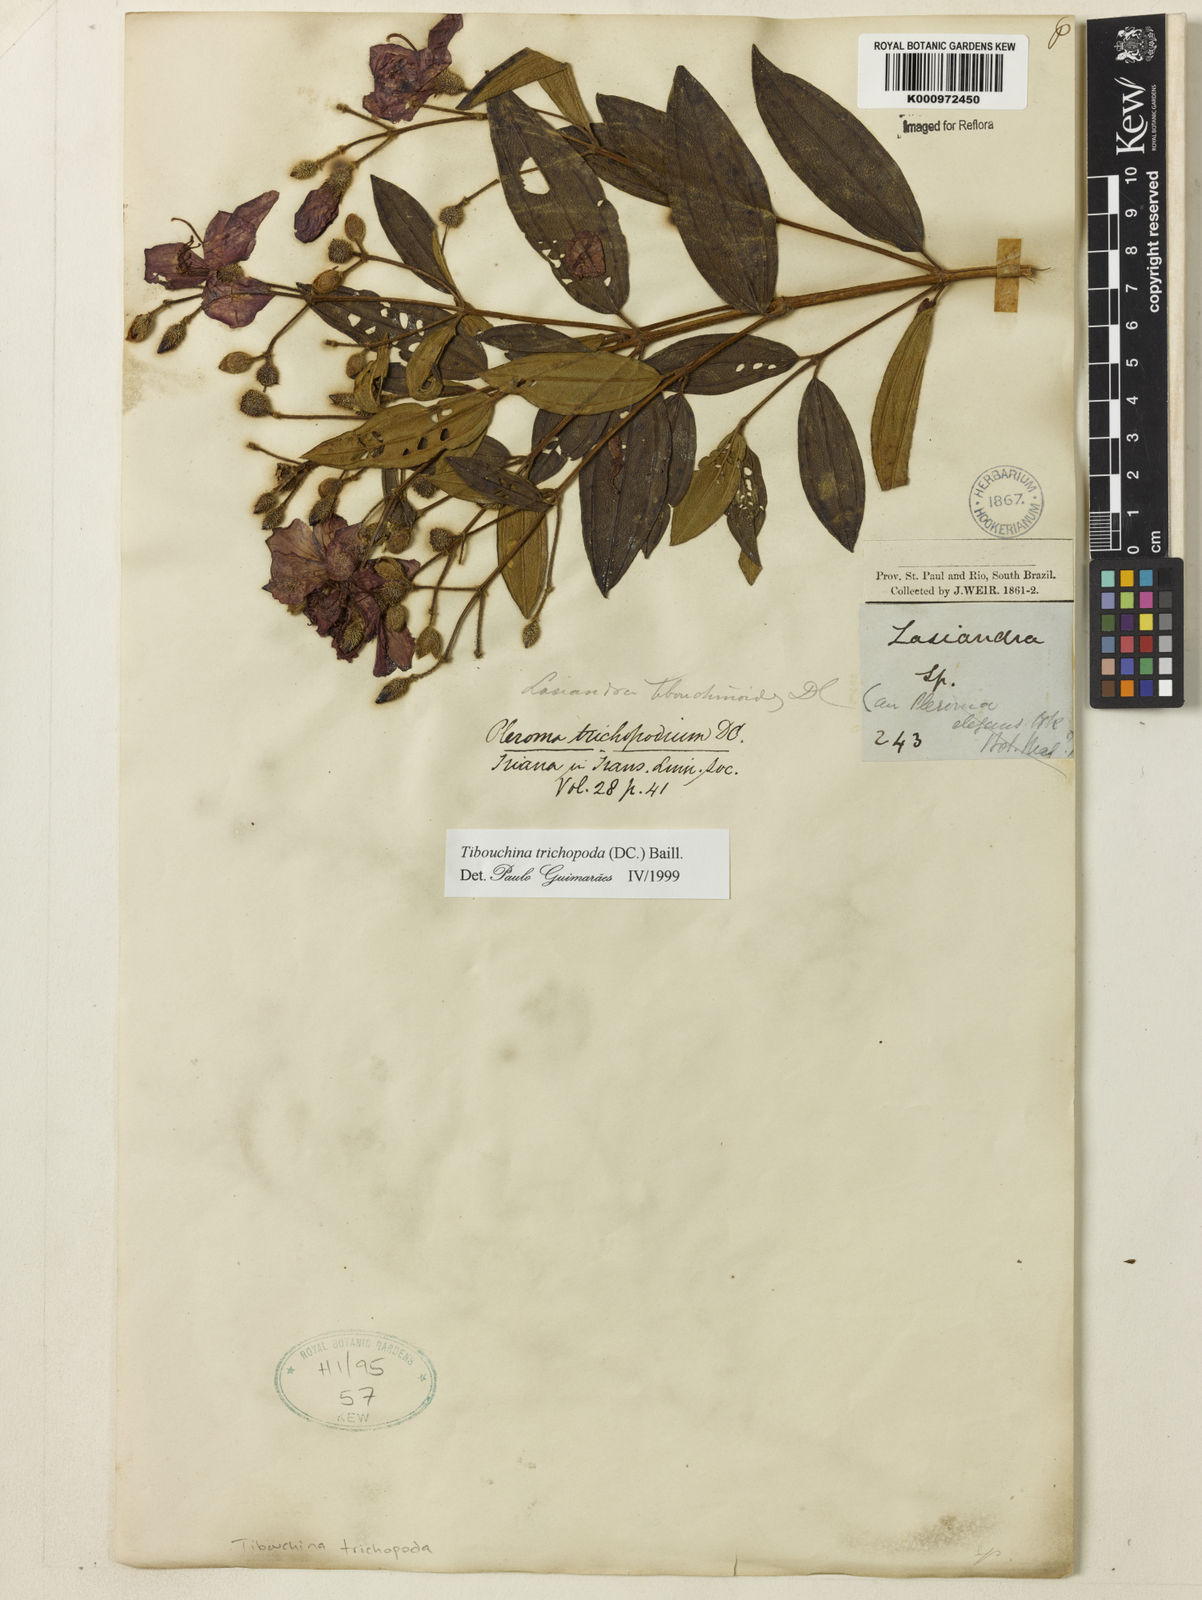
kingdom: Plantae
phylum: Tracheophyta
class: Magnoliopsida
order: Myrtales
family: Melastomataceae
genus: Pleroma
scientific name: Pleroma trichopodum
